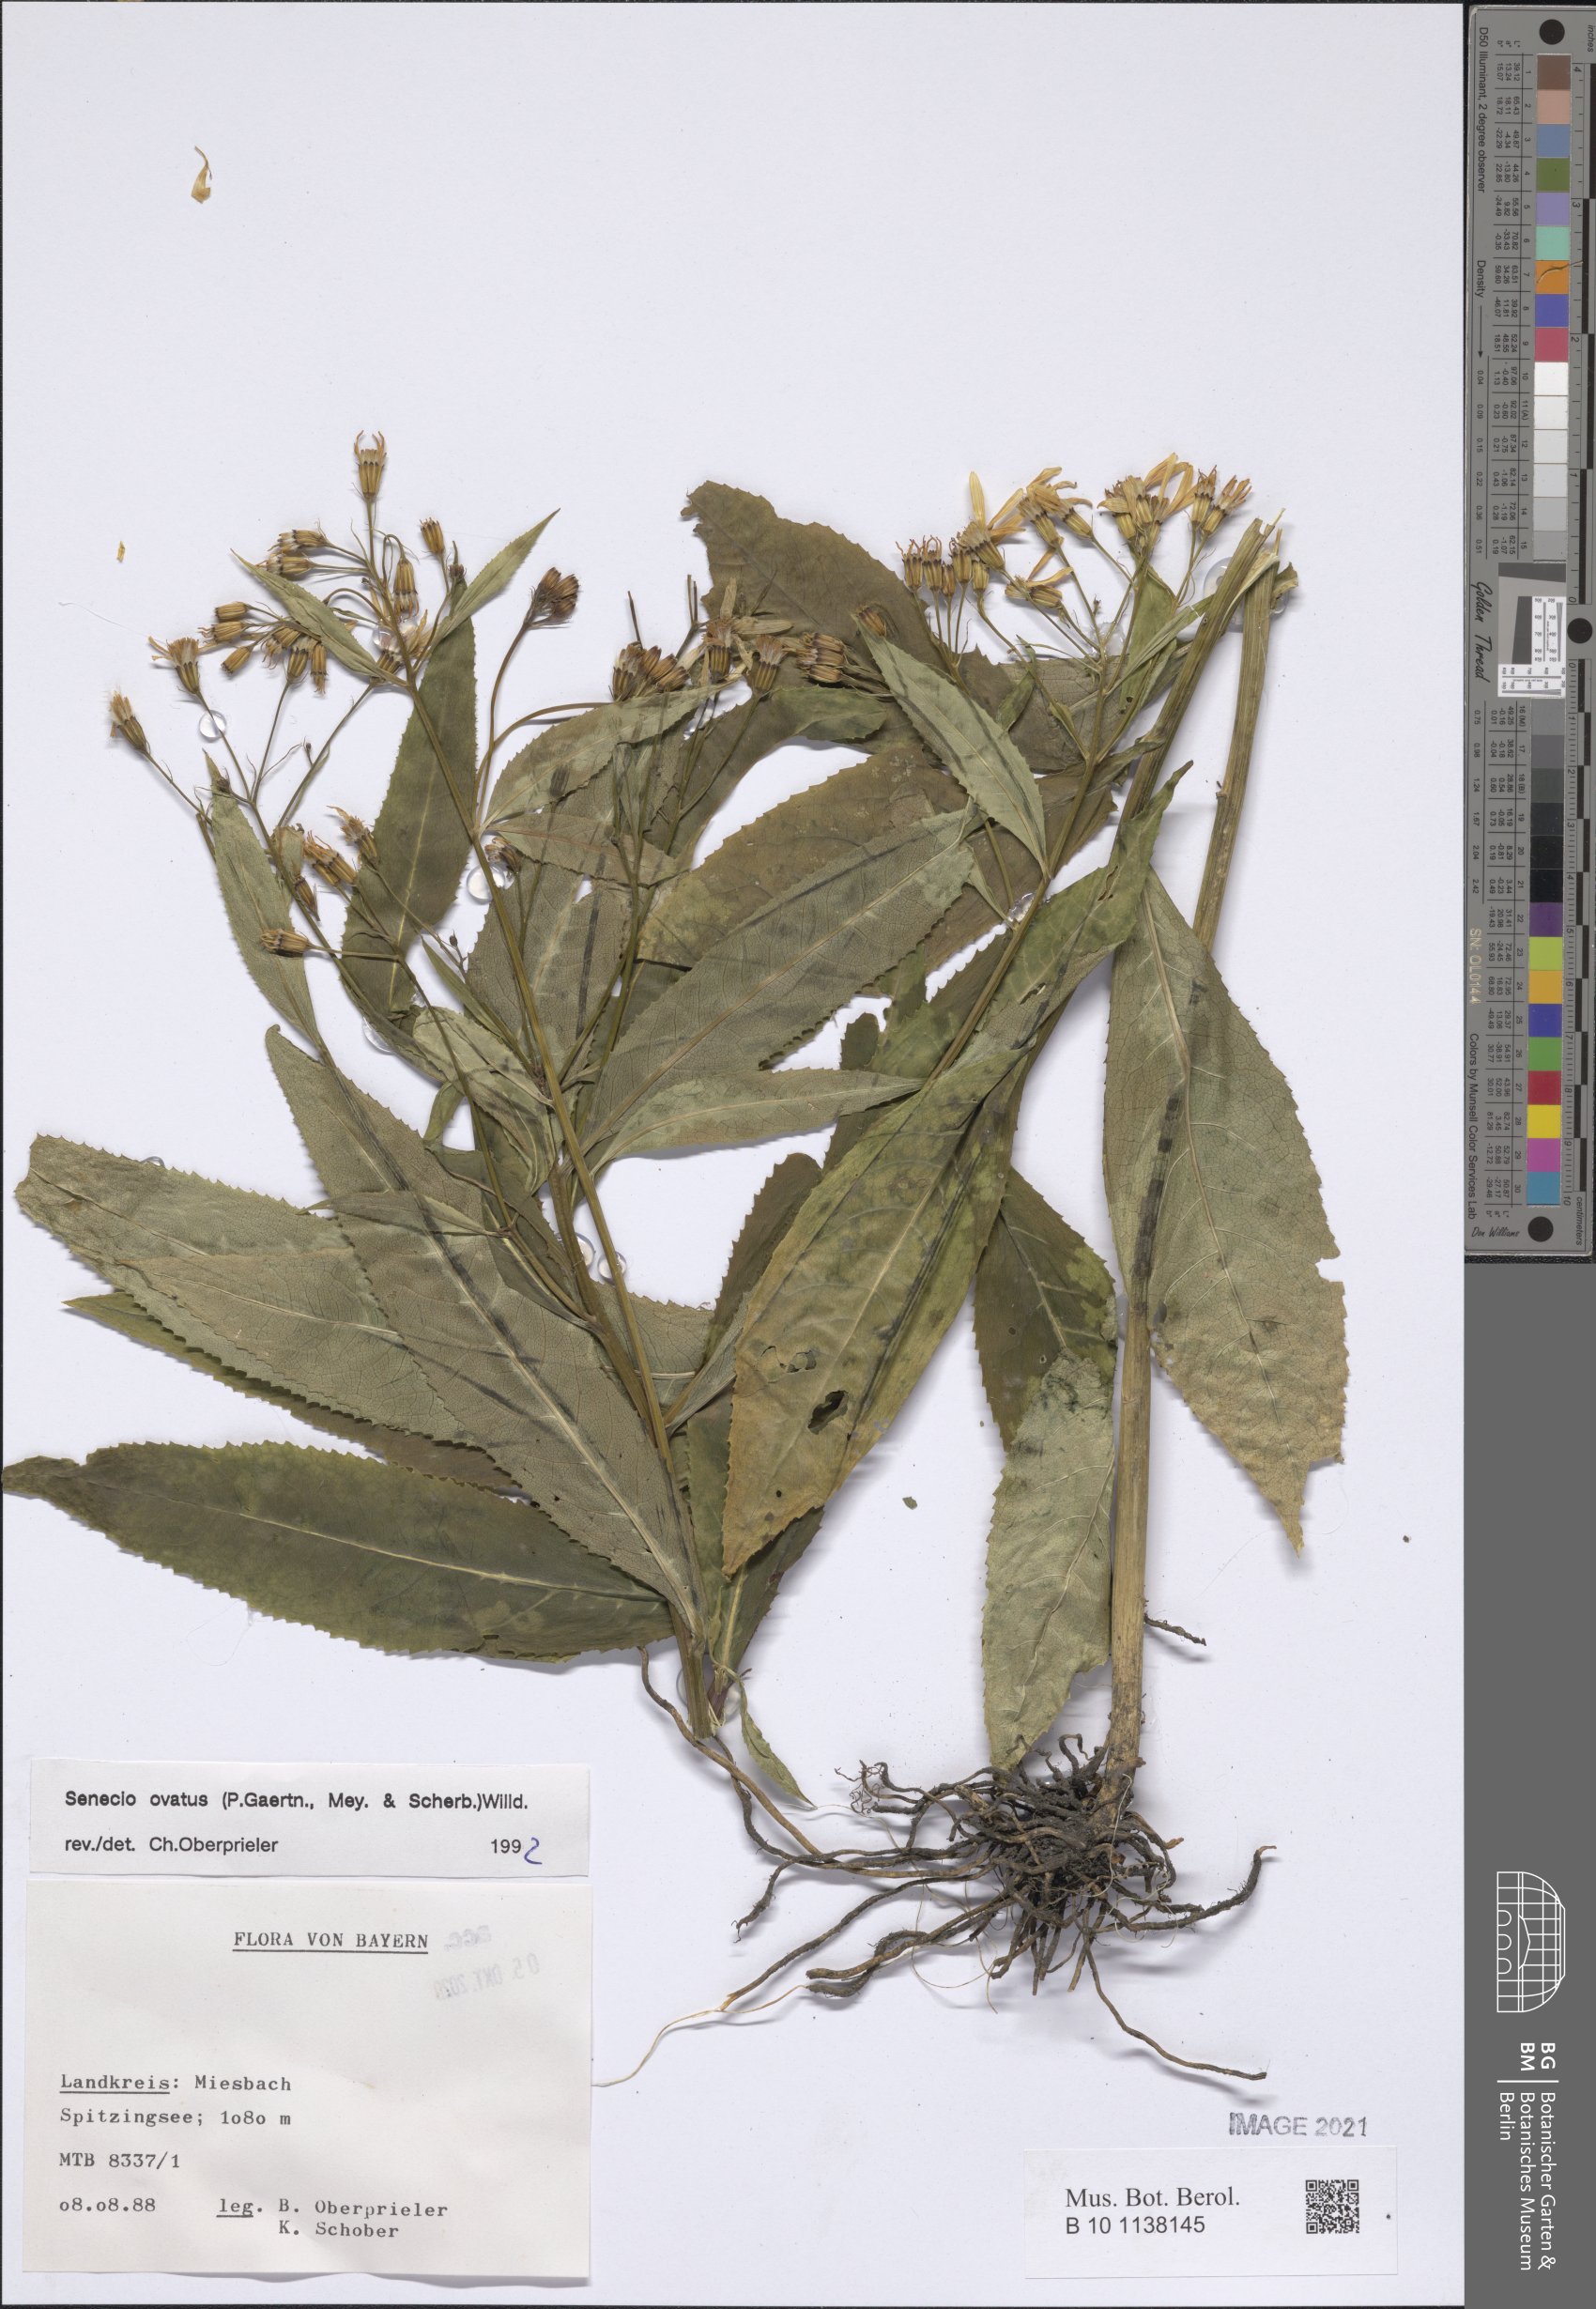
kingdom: Plantae
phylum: Tracheophyta
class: Magnoliopsida
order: Asterales
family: Asteraceae
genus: Senecio
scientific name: Senecio ovatus
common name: Wood ragwort
